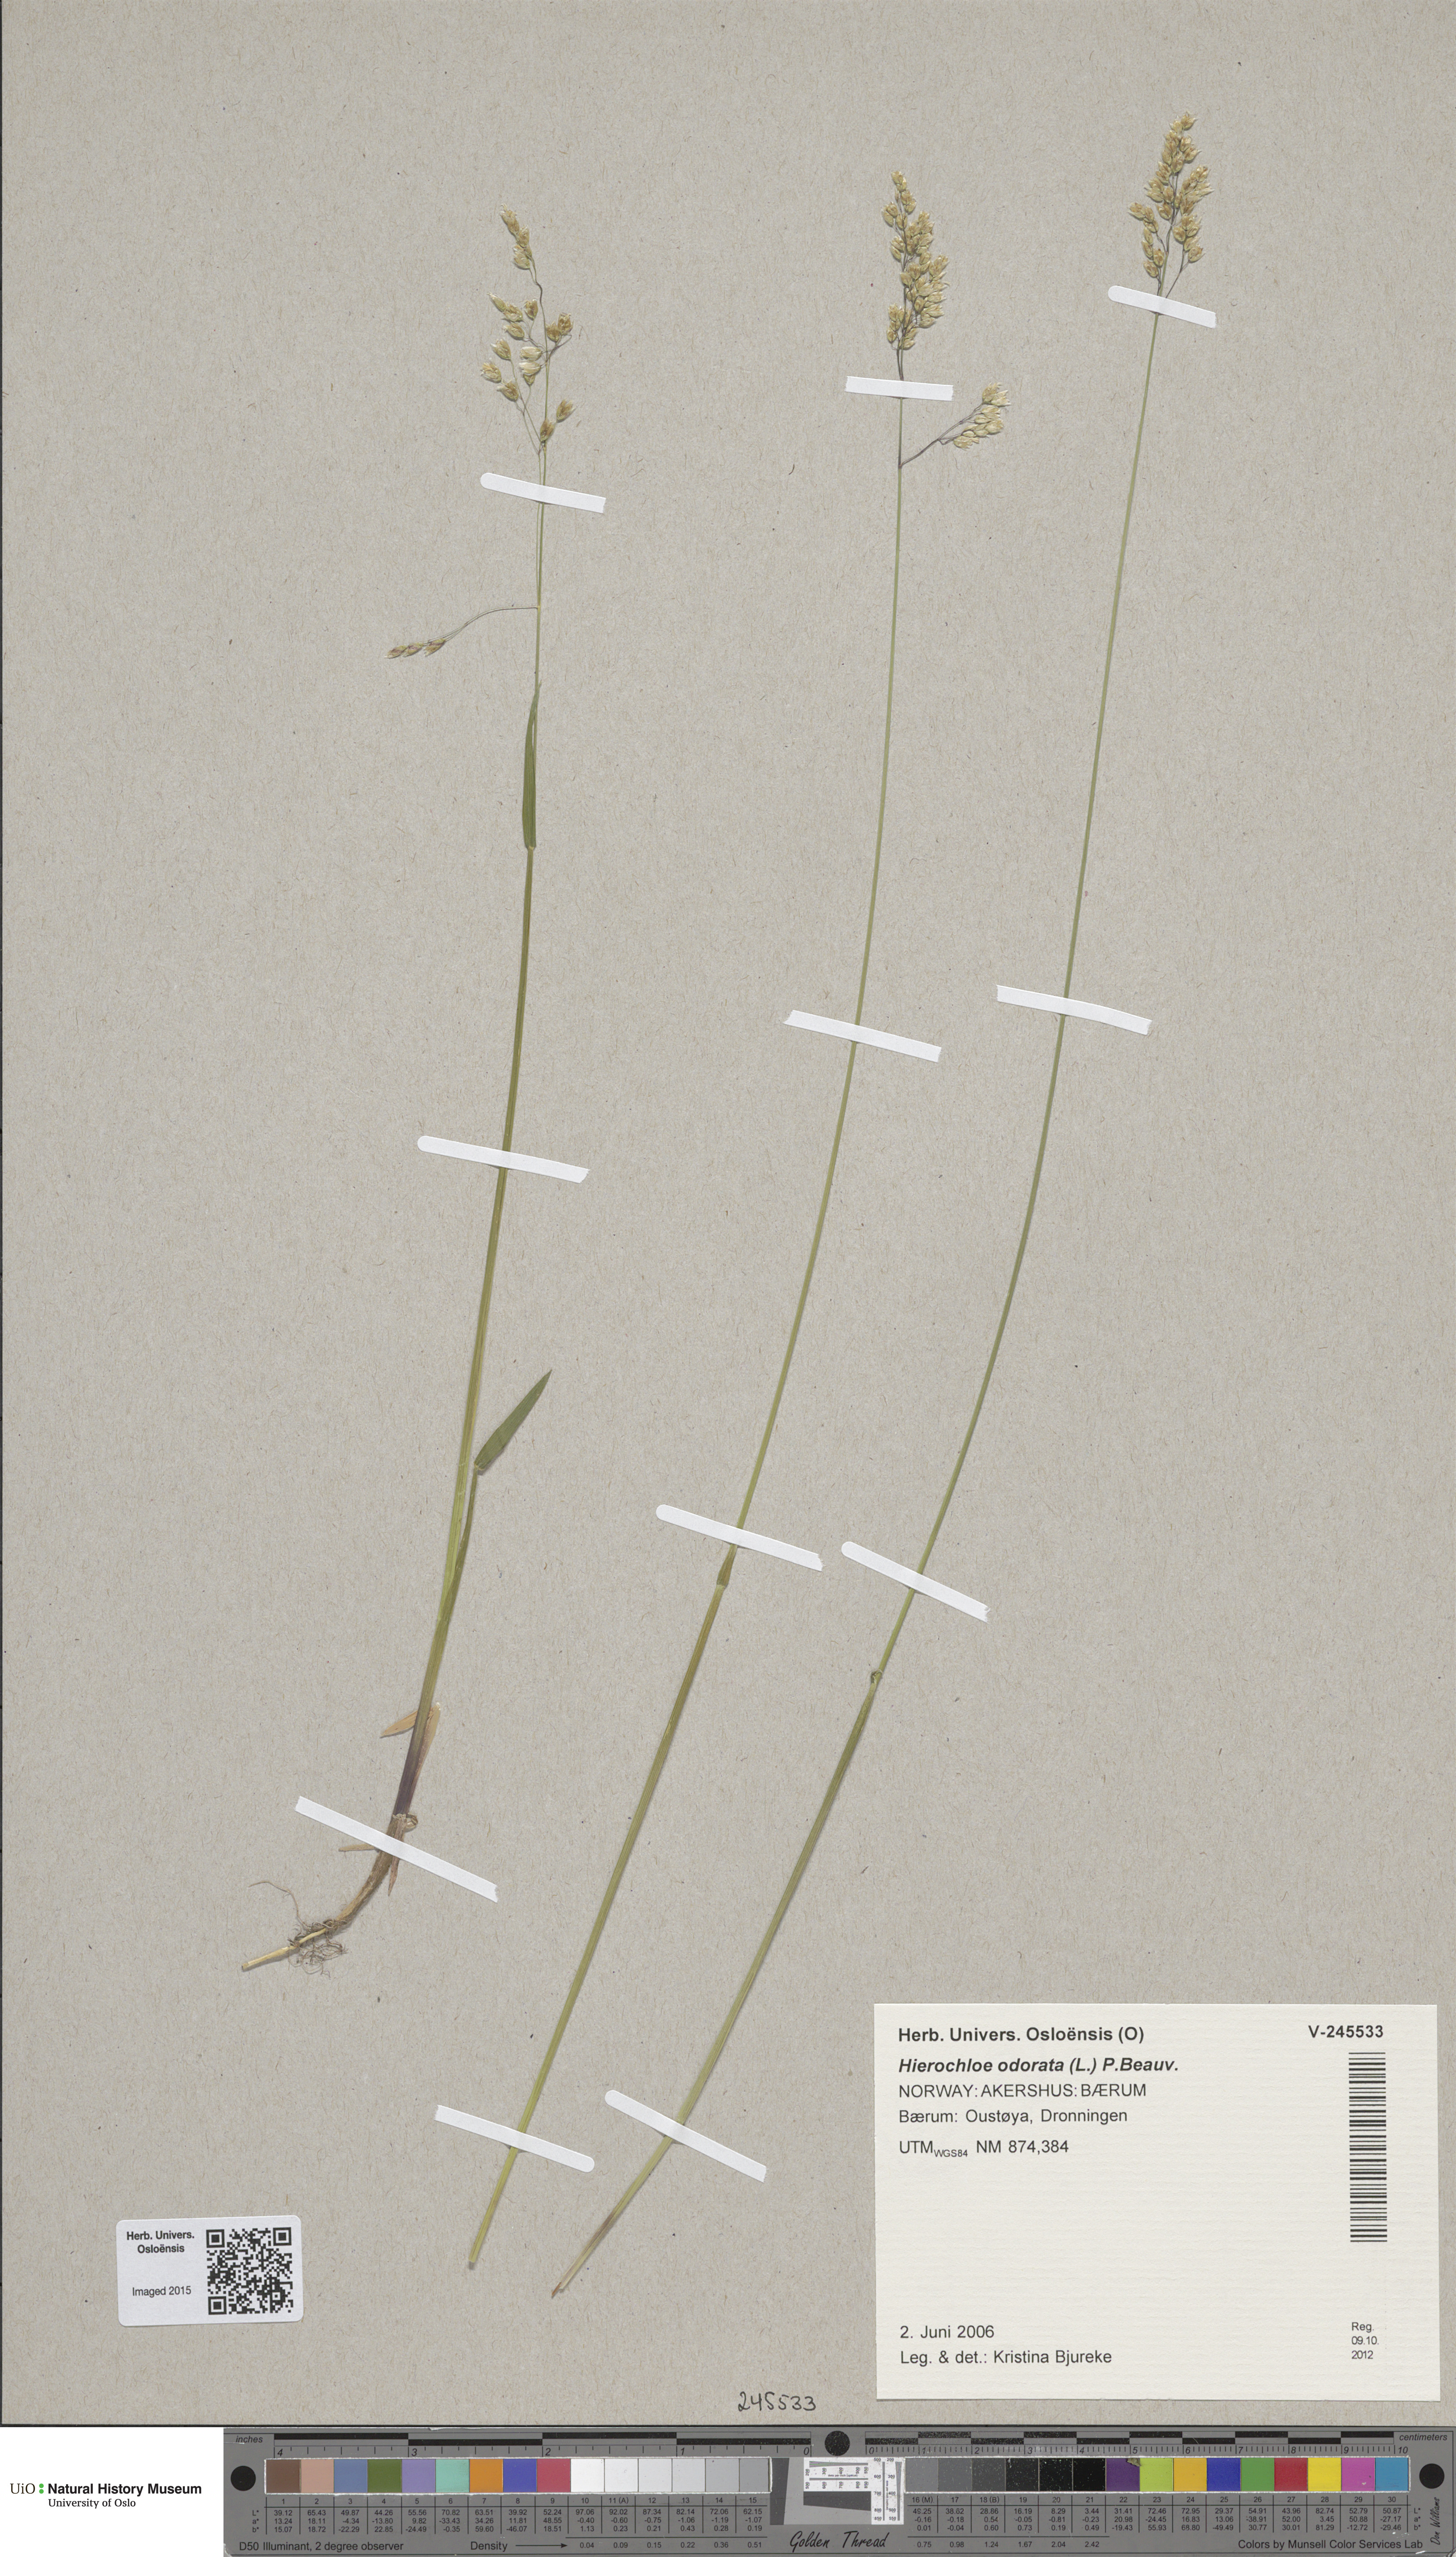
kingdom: Plantae
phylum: Tracheophyta
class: Liliopsida
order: Poales
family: Poaceae
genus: Anthoxanthum
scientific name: Anthoxanthum nitens
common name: Holy grass
